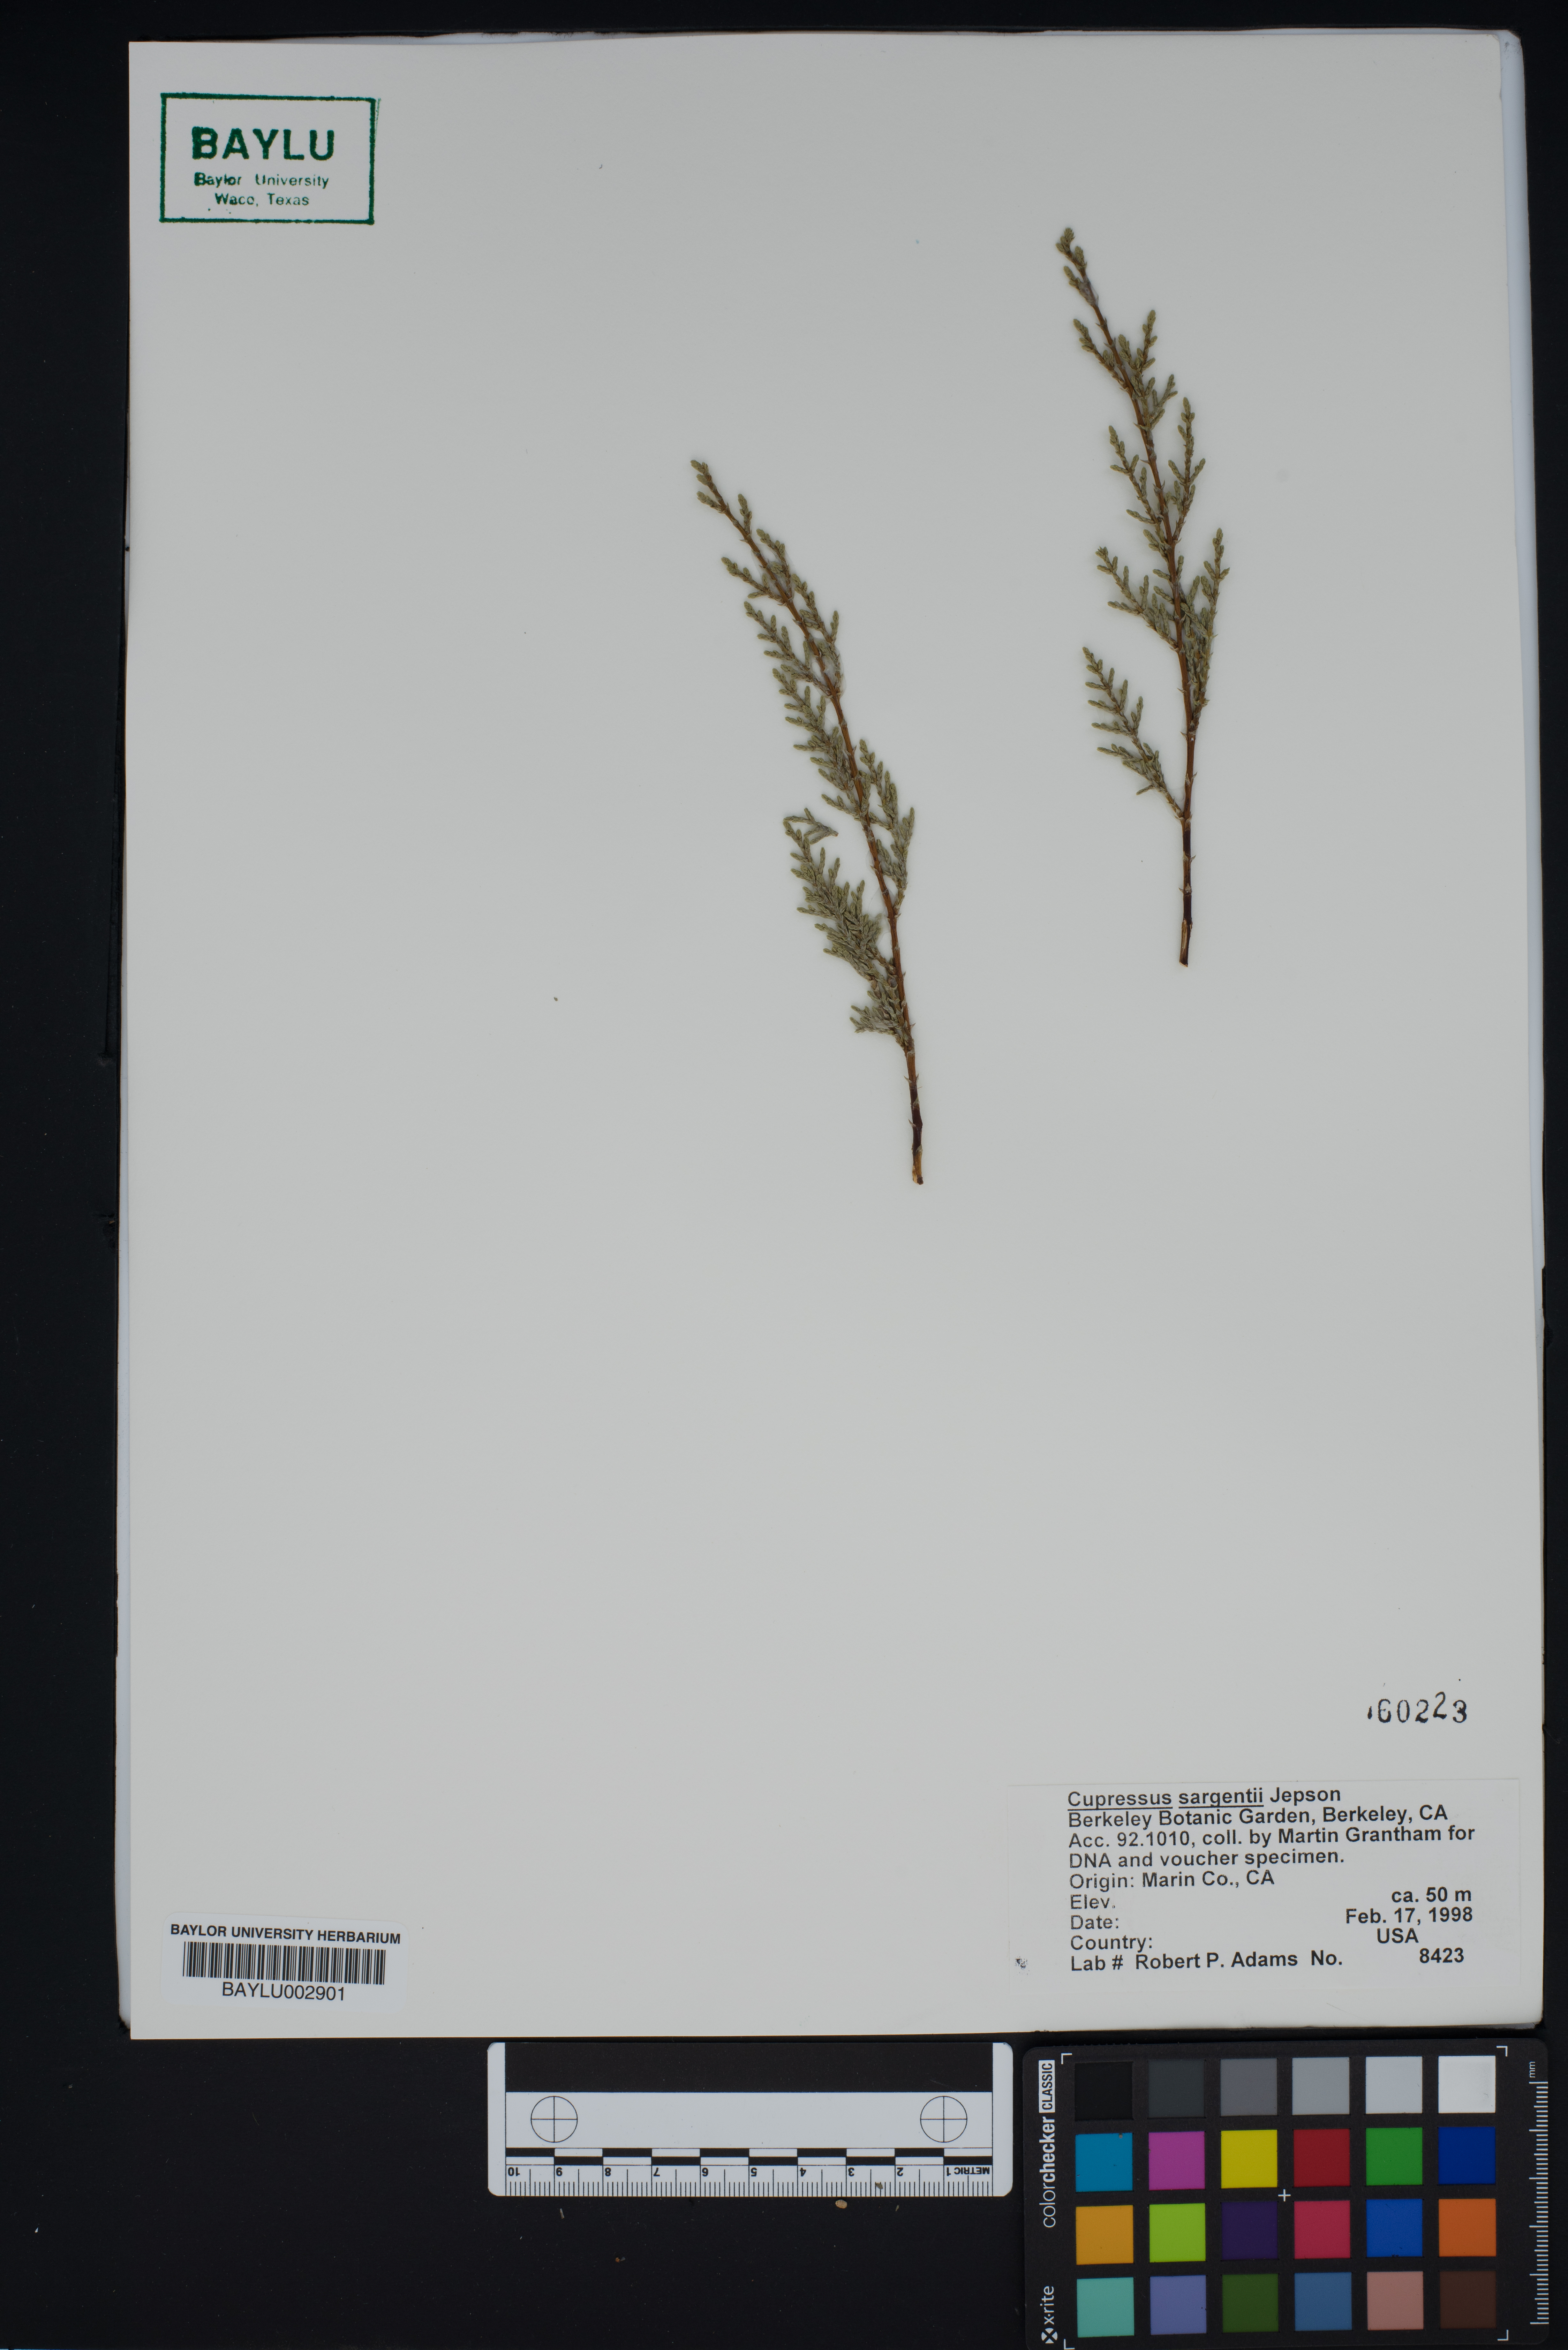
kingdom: Plantae
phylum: Tracheophyta
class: Pinopsida
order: Pinales
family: Cupressaceae
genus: Cupressus
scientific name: Cupressus sargentii
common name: Sargent cypress
